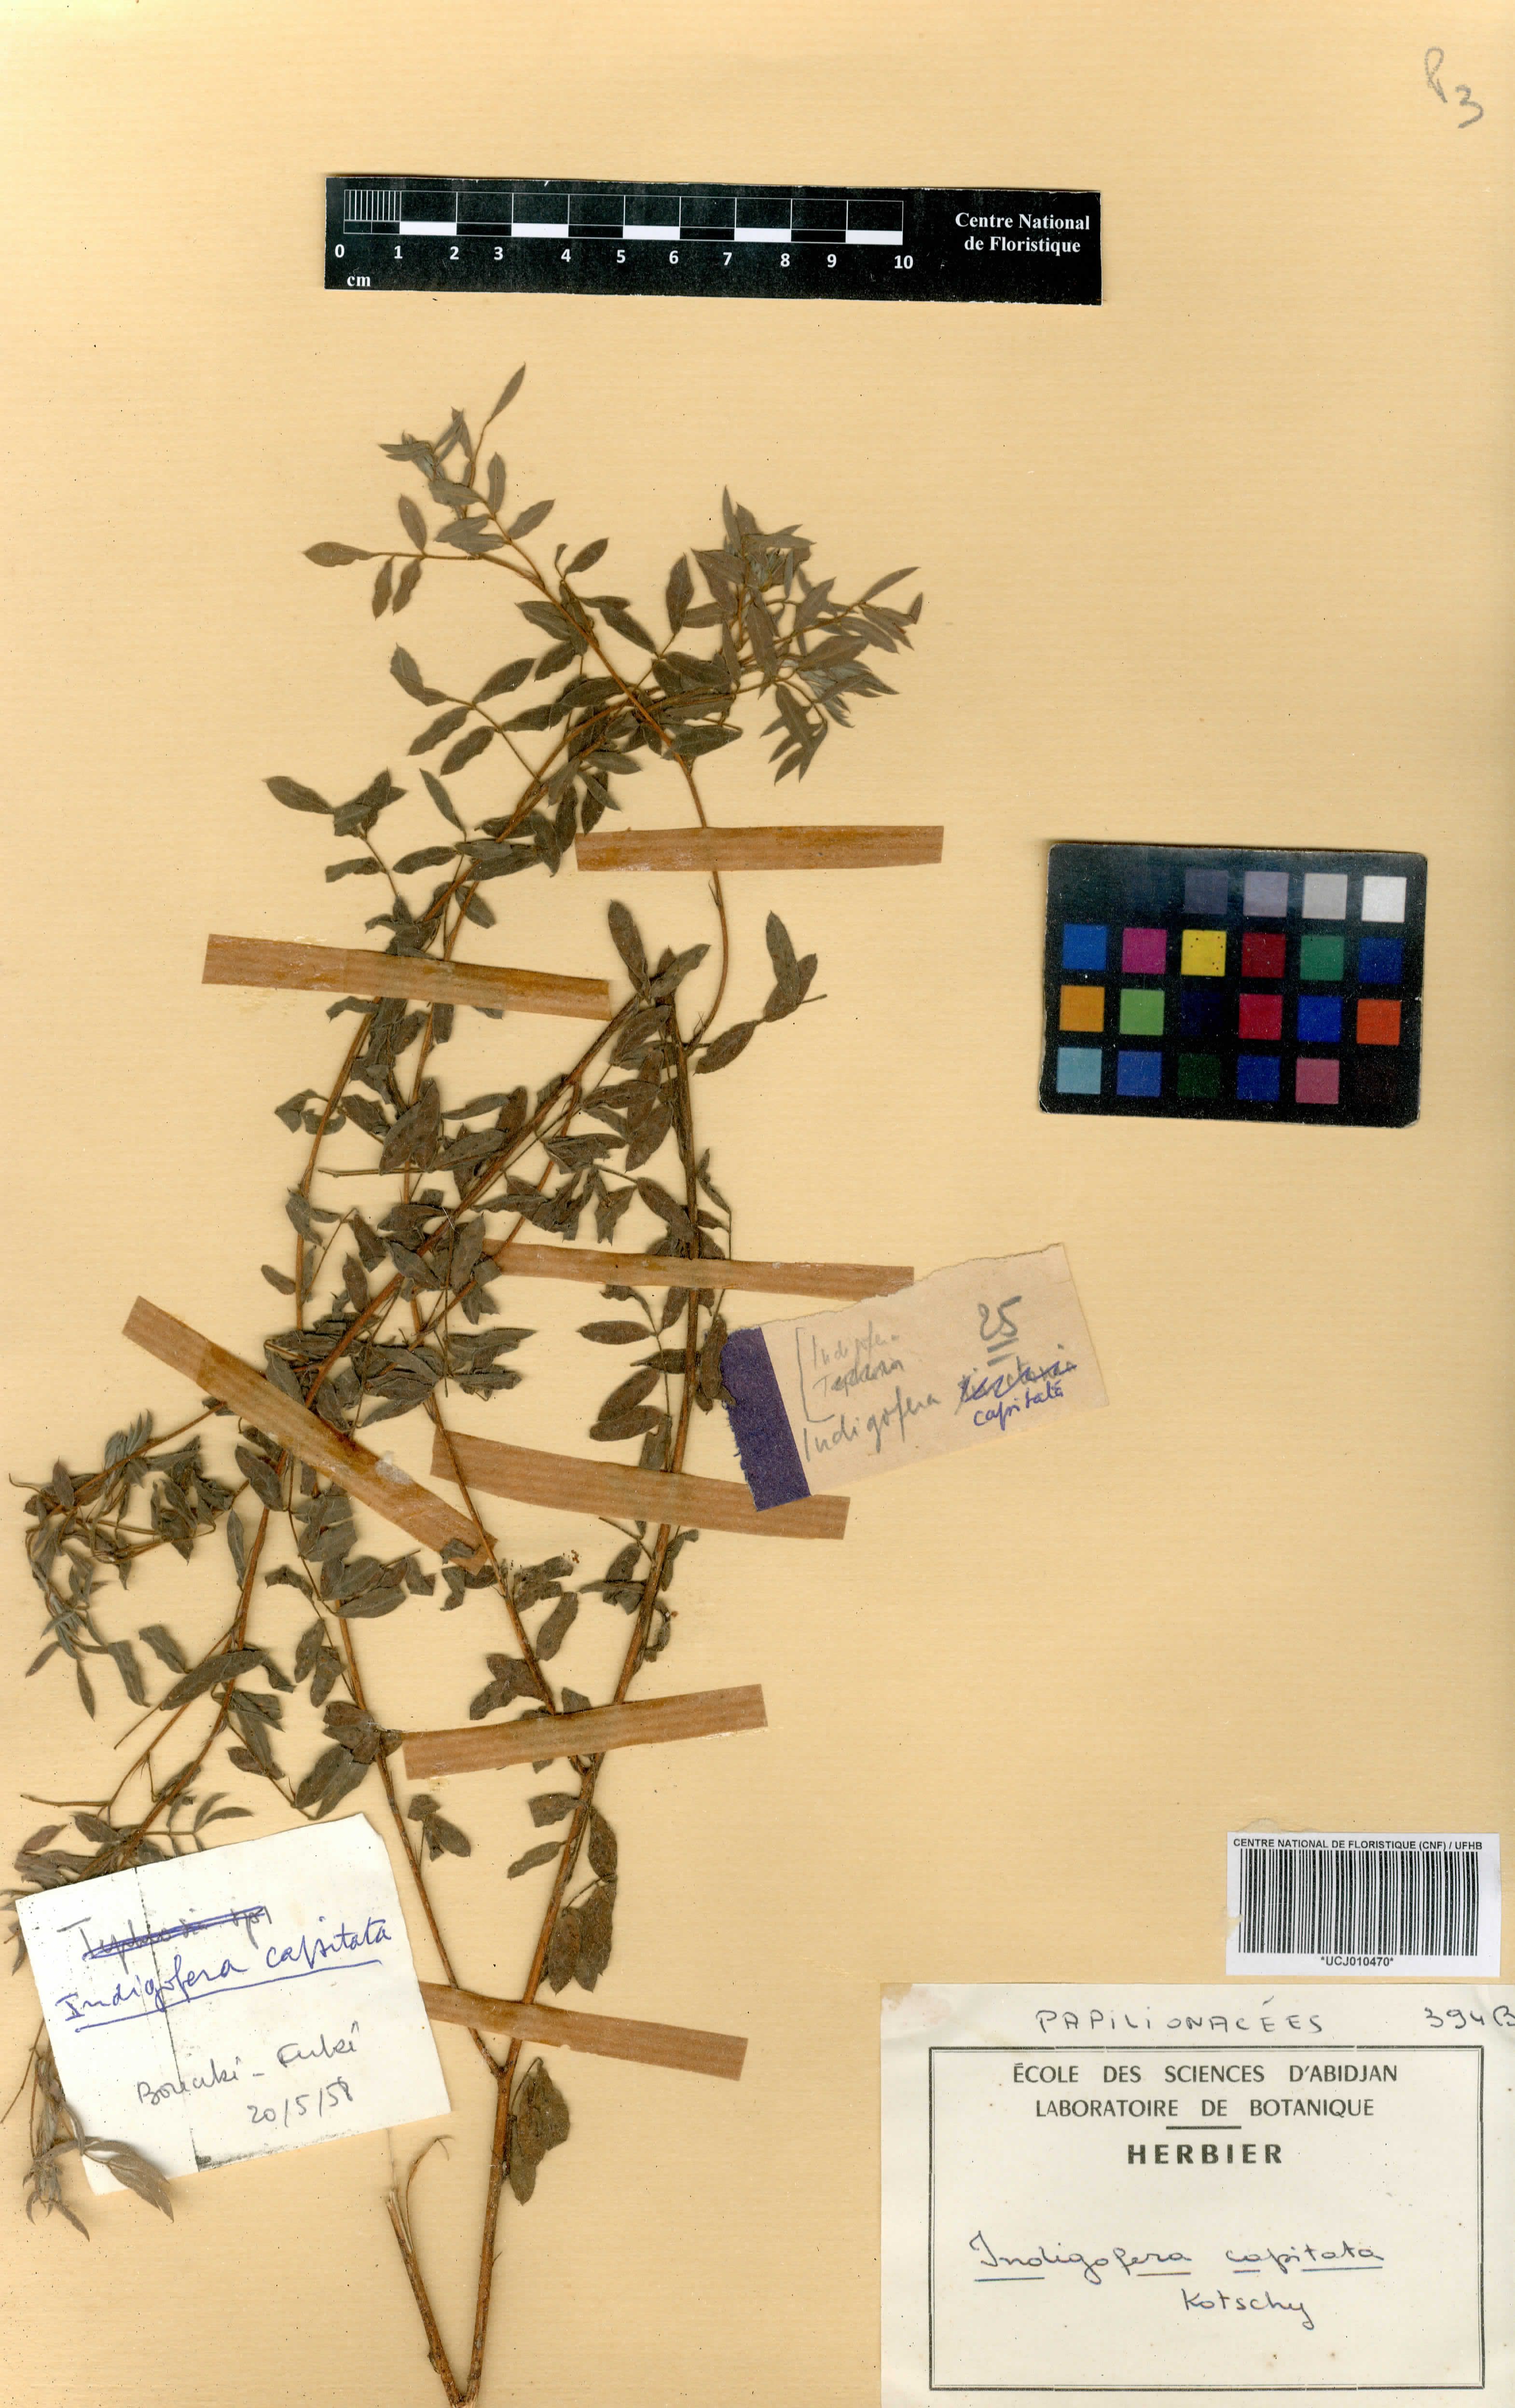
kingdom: Plantae
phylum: Tracheophyta
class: Magnoliopsida
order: Fabales
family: Fabaceae
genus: Indigofera
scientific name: Indigofera capitata
